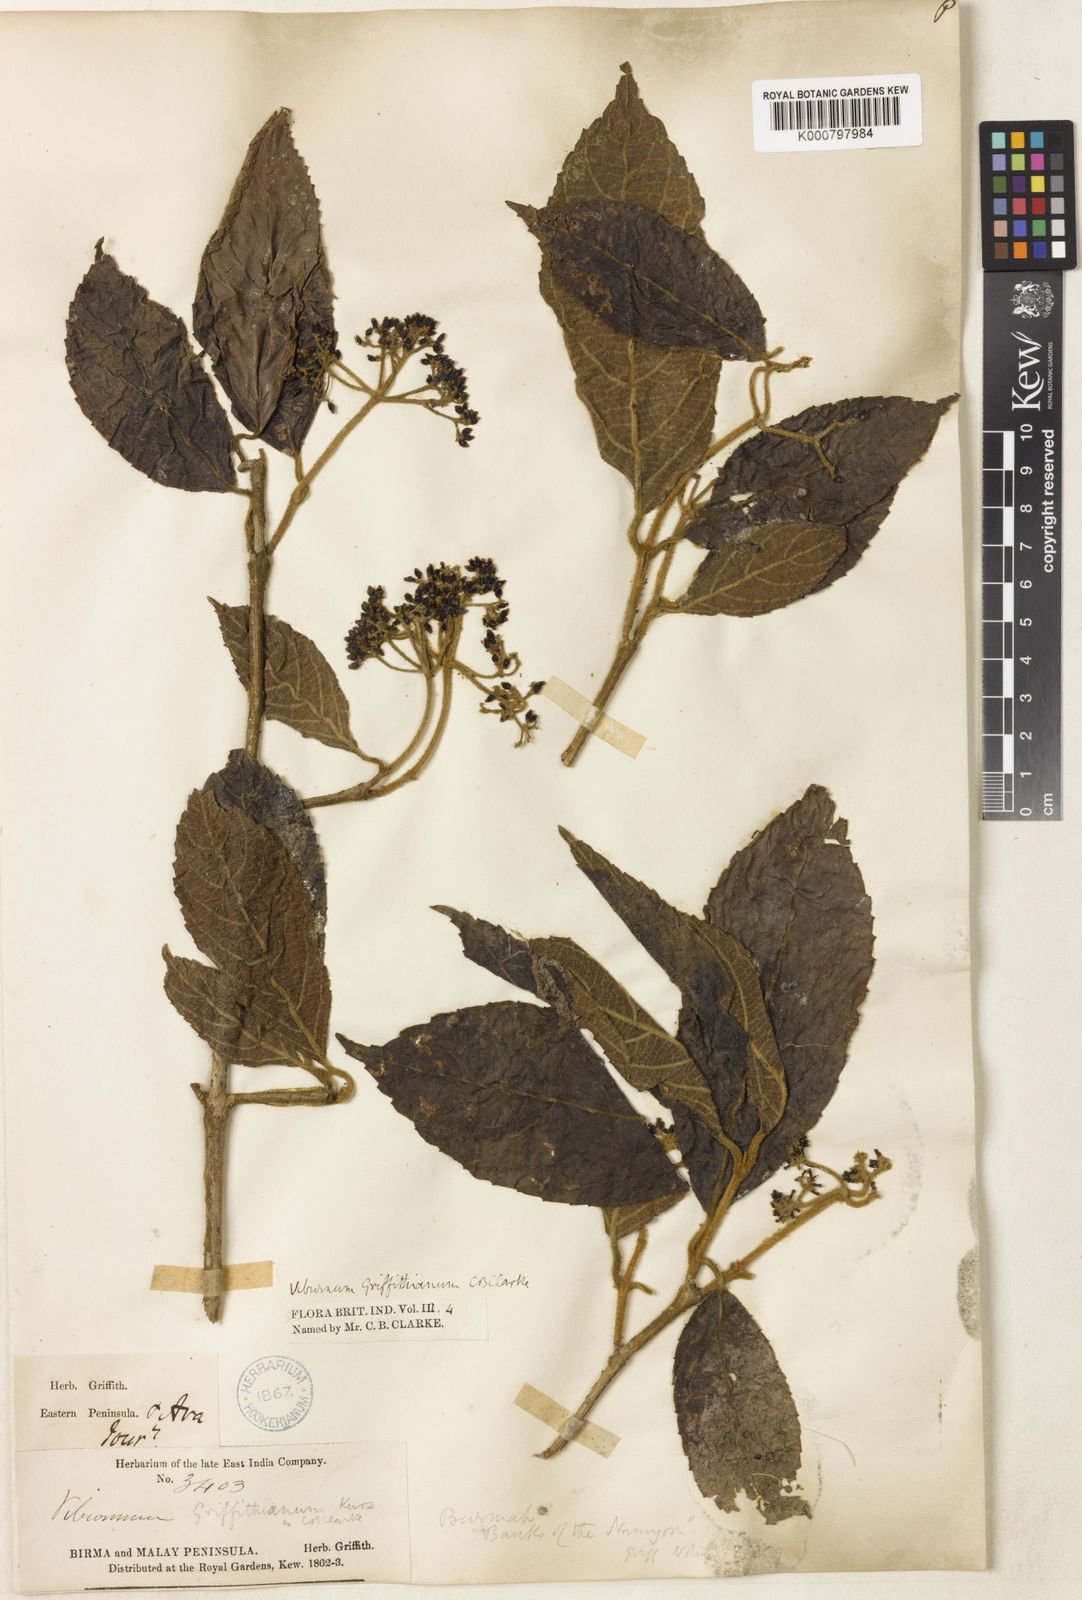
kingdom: Plantae
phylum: Tracheophyta
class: Magnoliopsida
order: Dipsacales
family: Viburnaceae
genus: Viburnum
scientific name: Viburnum griffithianum
